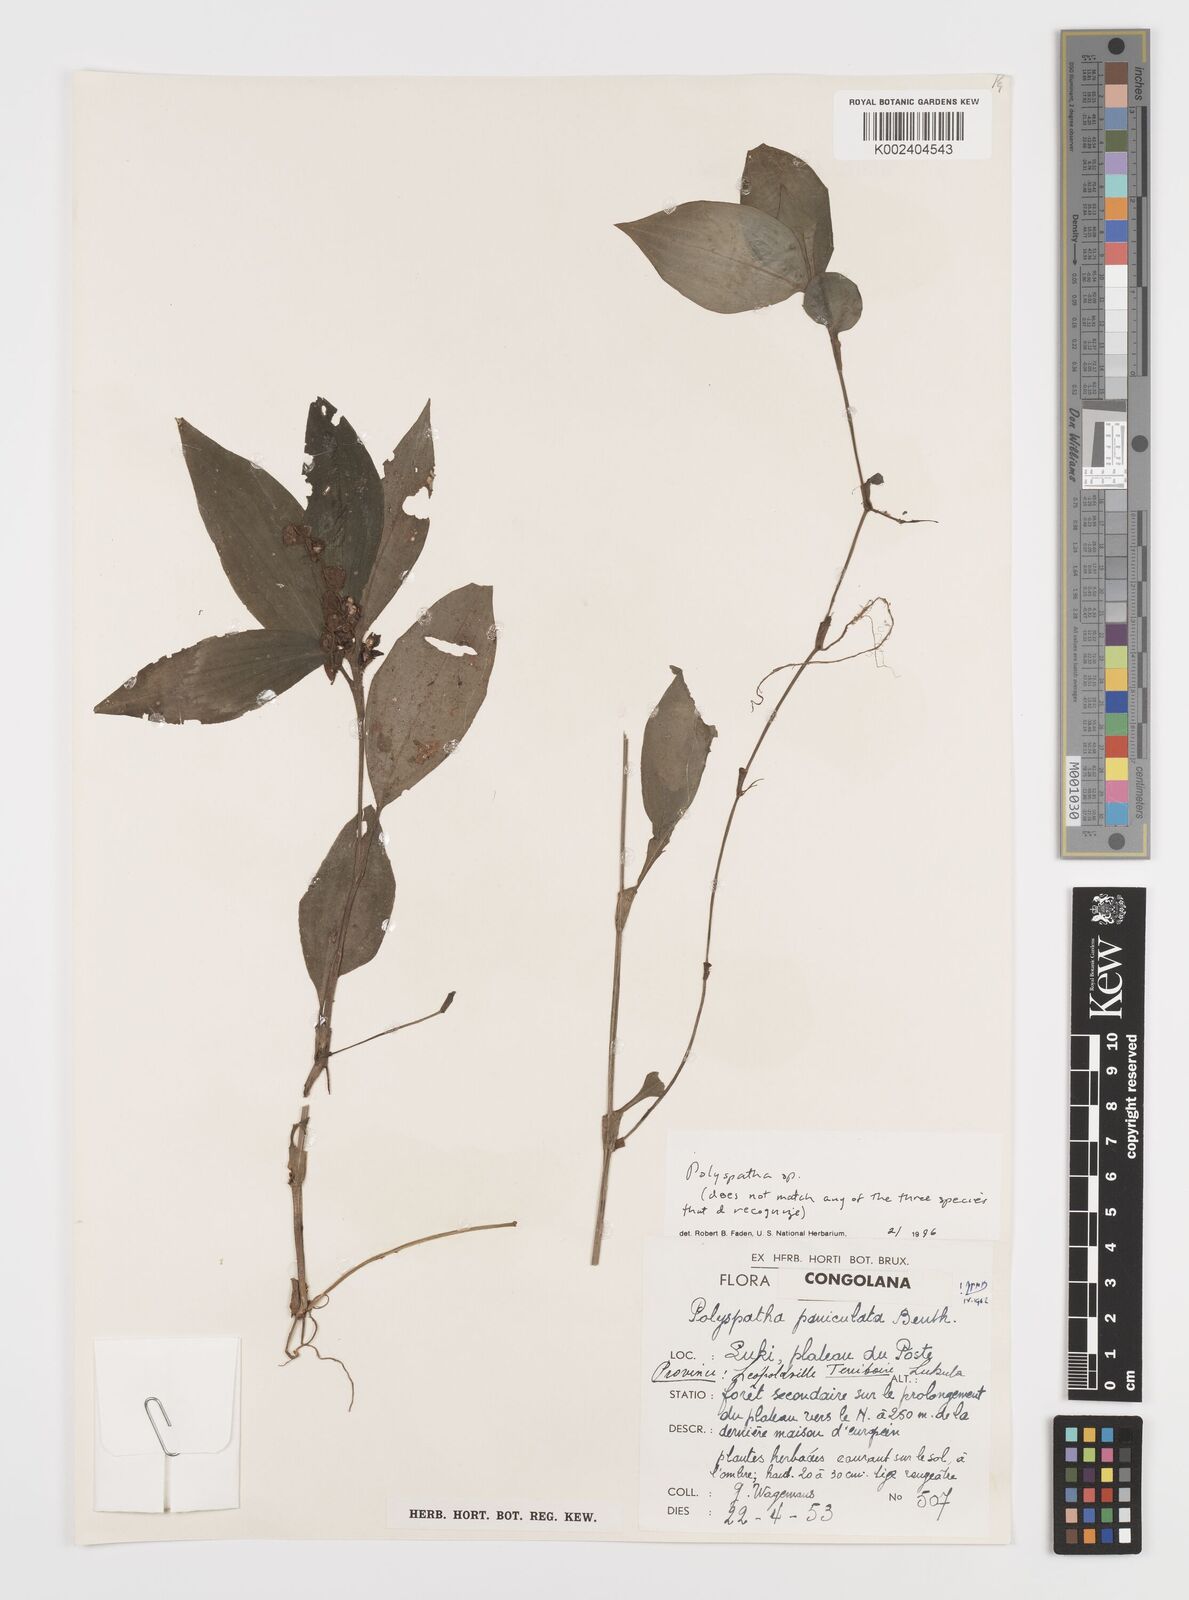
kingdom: Plantae
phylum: Tracheophyta
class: Liliopsida
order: Commelinales
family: Commelinaceae
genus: Polyspatha
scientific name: Polyspatha
